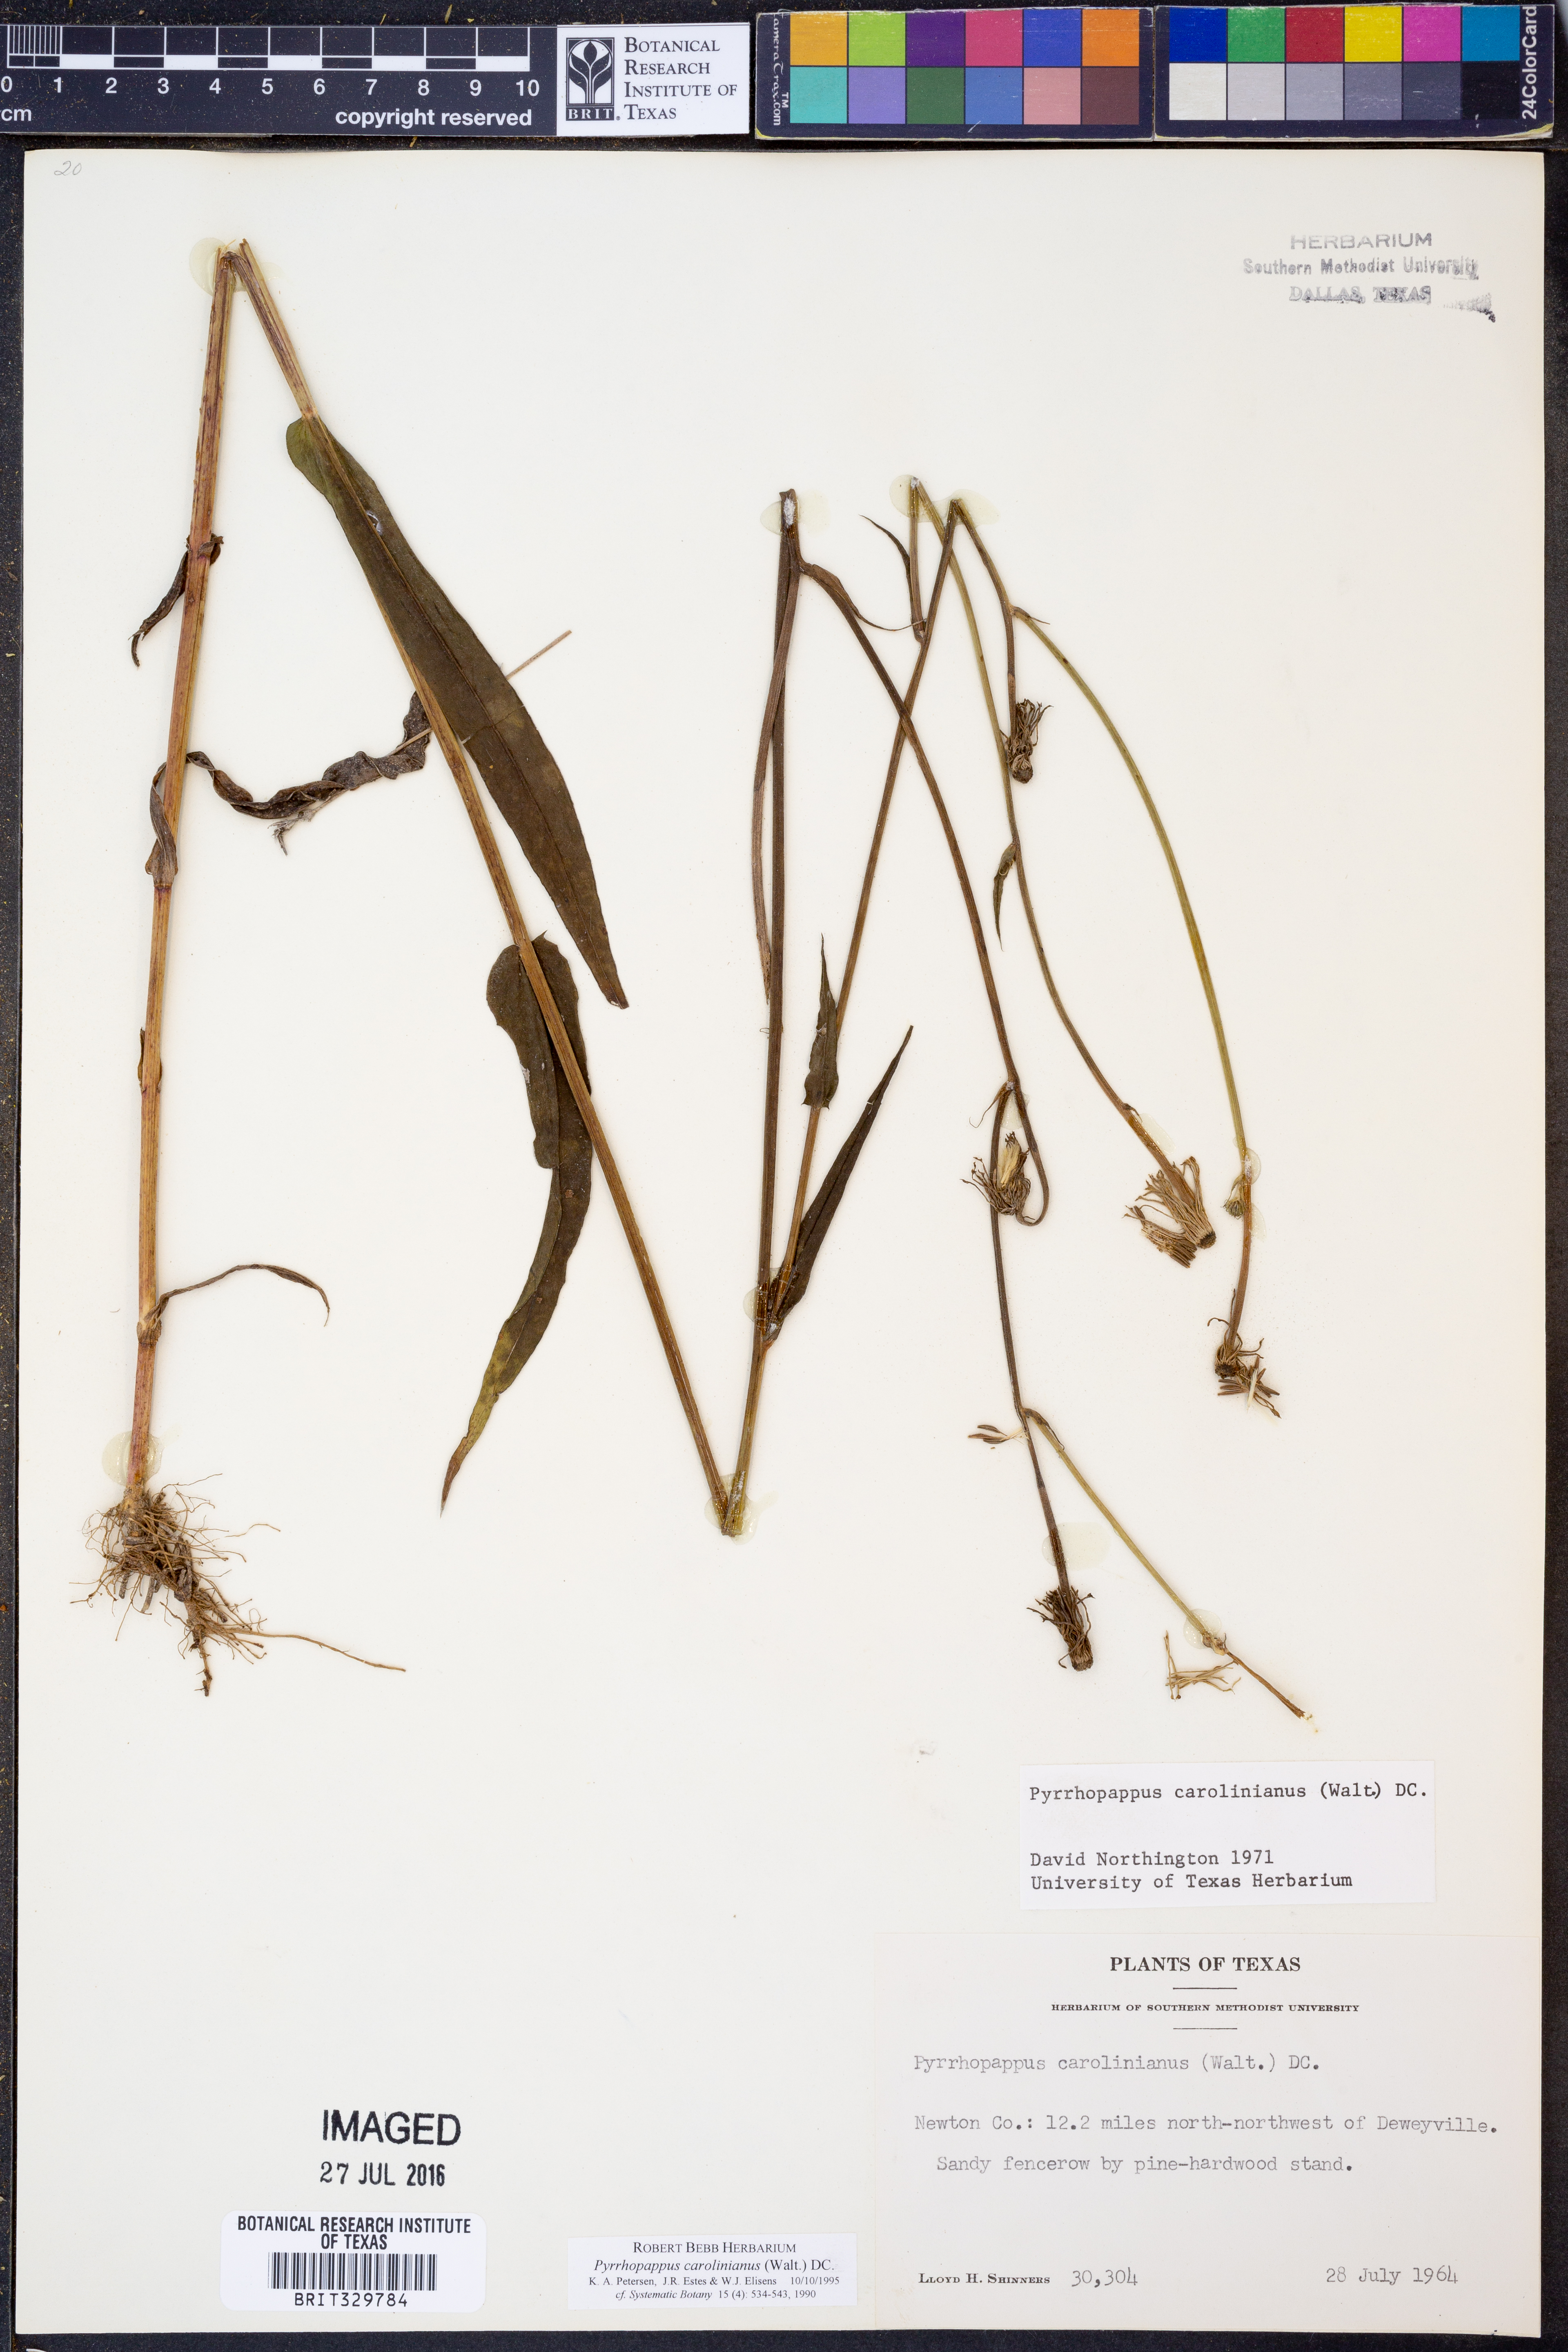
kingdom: Plantae
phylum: Tracheophyta
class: Magnoliopsida
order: Asterales
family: Asteraceae
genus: Pyrrhopappus
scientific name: Pyrrhopappus carolinianus
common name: Carolina desert-chicory
